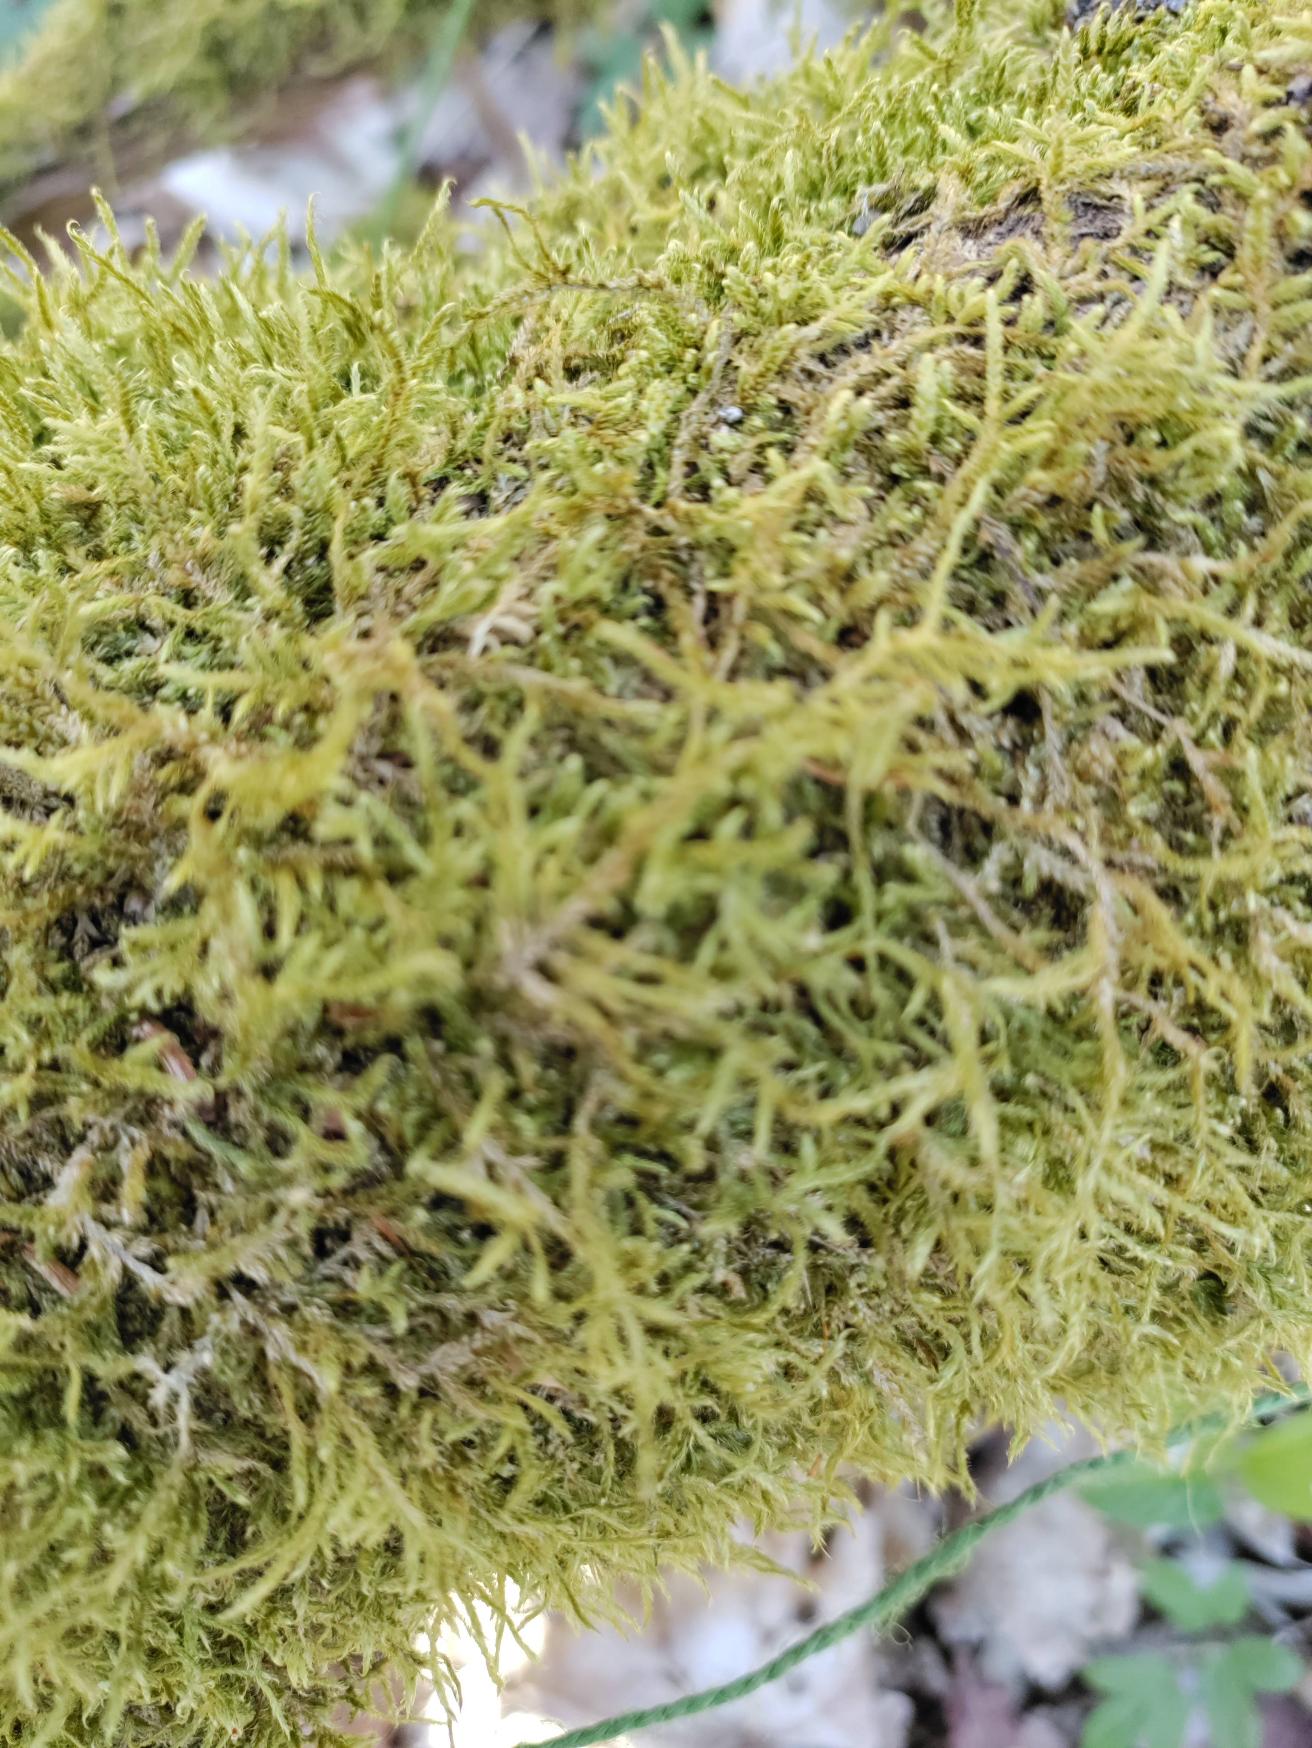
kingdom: Plantae
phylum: Bryophyta
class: Bryopsida
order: Hypnales
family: Hypnaceae
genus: Hypnum
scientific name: Hypnum cupressiforme
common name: Almindelig cypresmos
